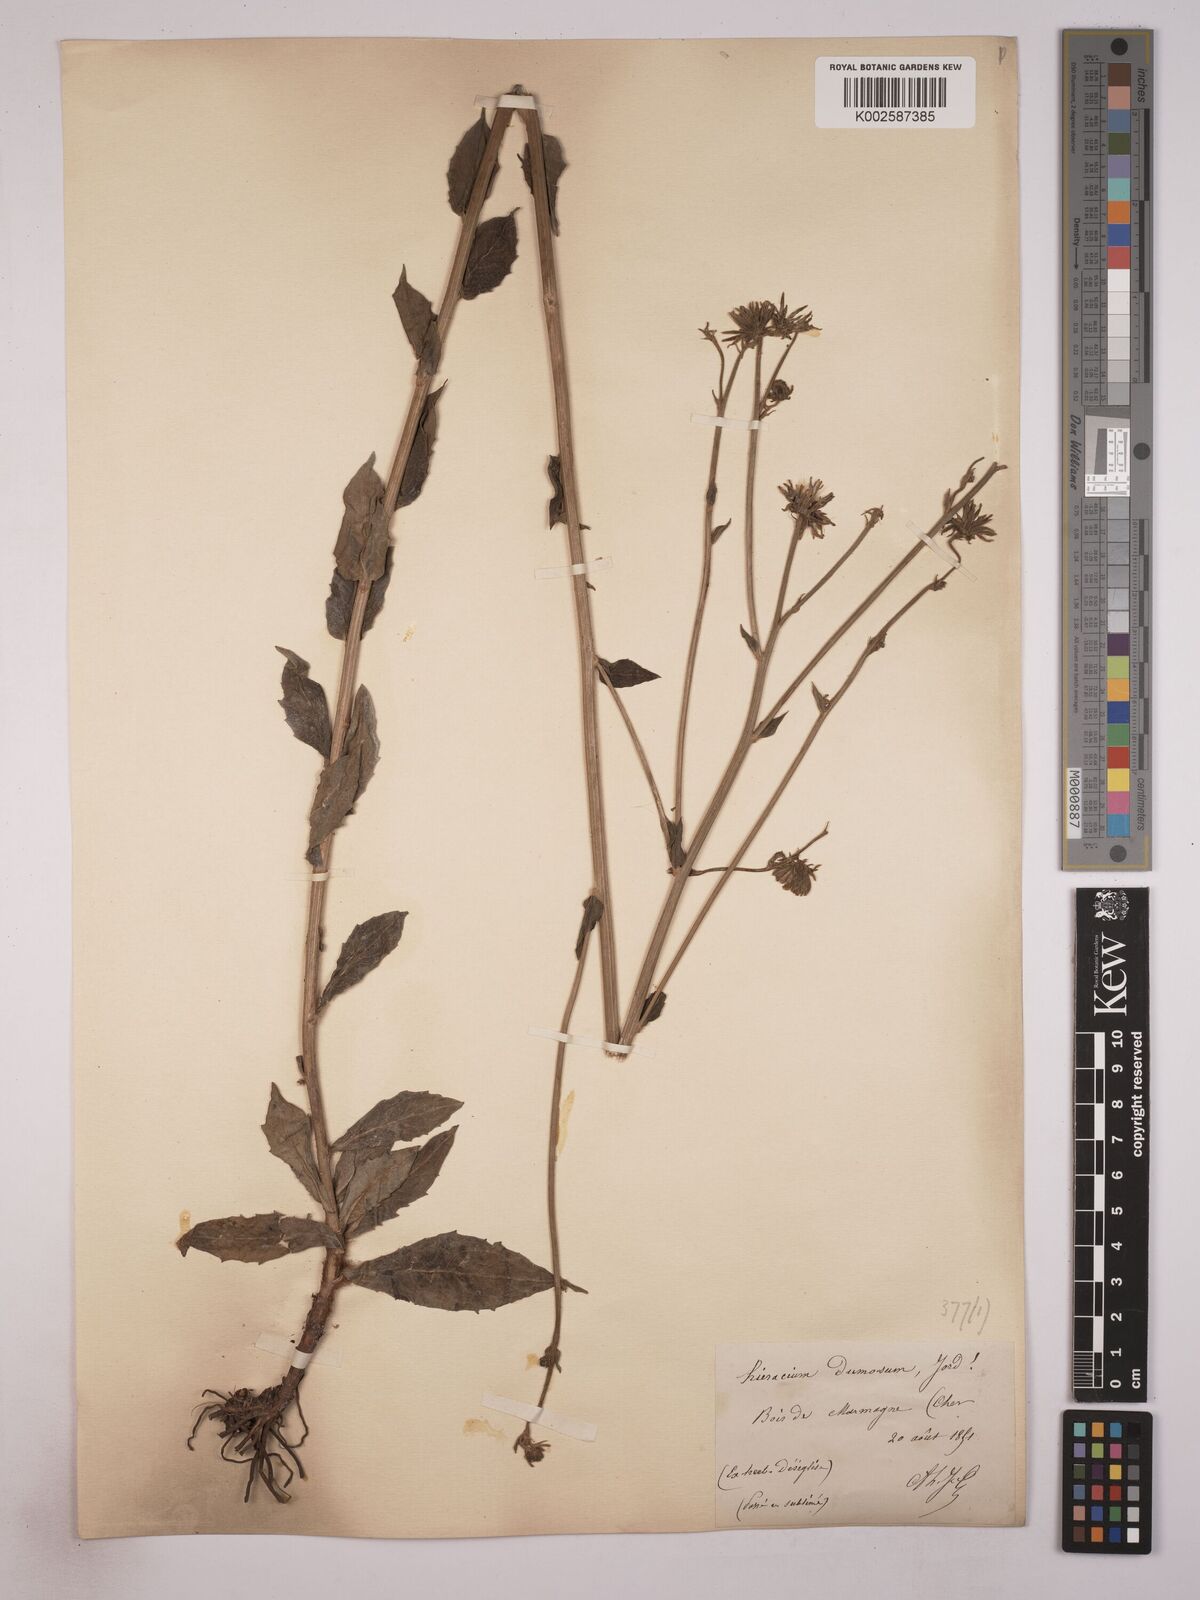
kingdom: Plantae
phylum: Tracheophyta
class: Magnoliopsida
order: Asterales
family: Asteraceae
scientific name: Asteraceae
